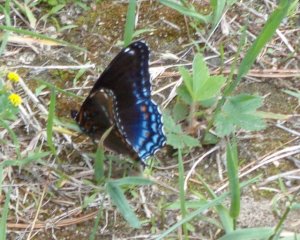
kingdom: Animalia
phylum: Arthropoda
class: Insecta
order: Lepidoptera
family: Nymphalidae
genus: Limenitis
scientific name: Limenitis
